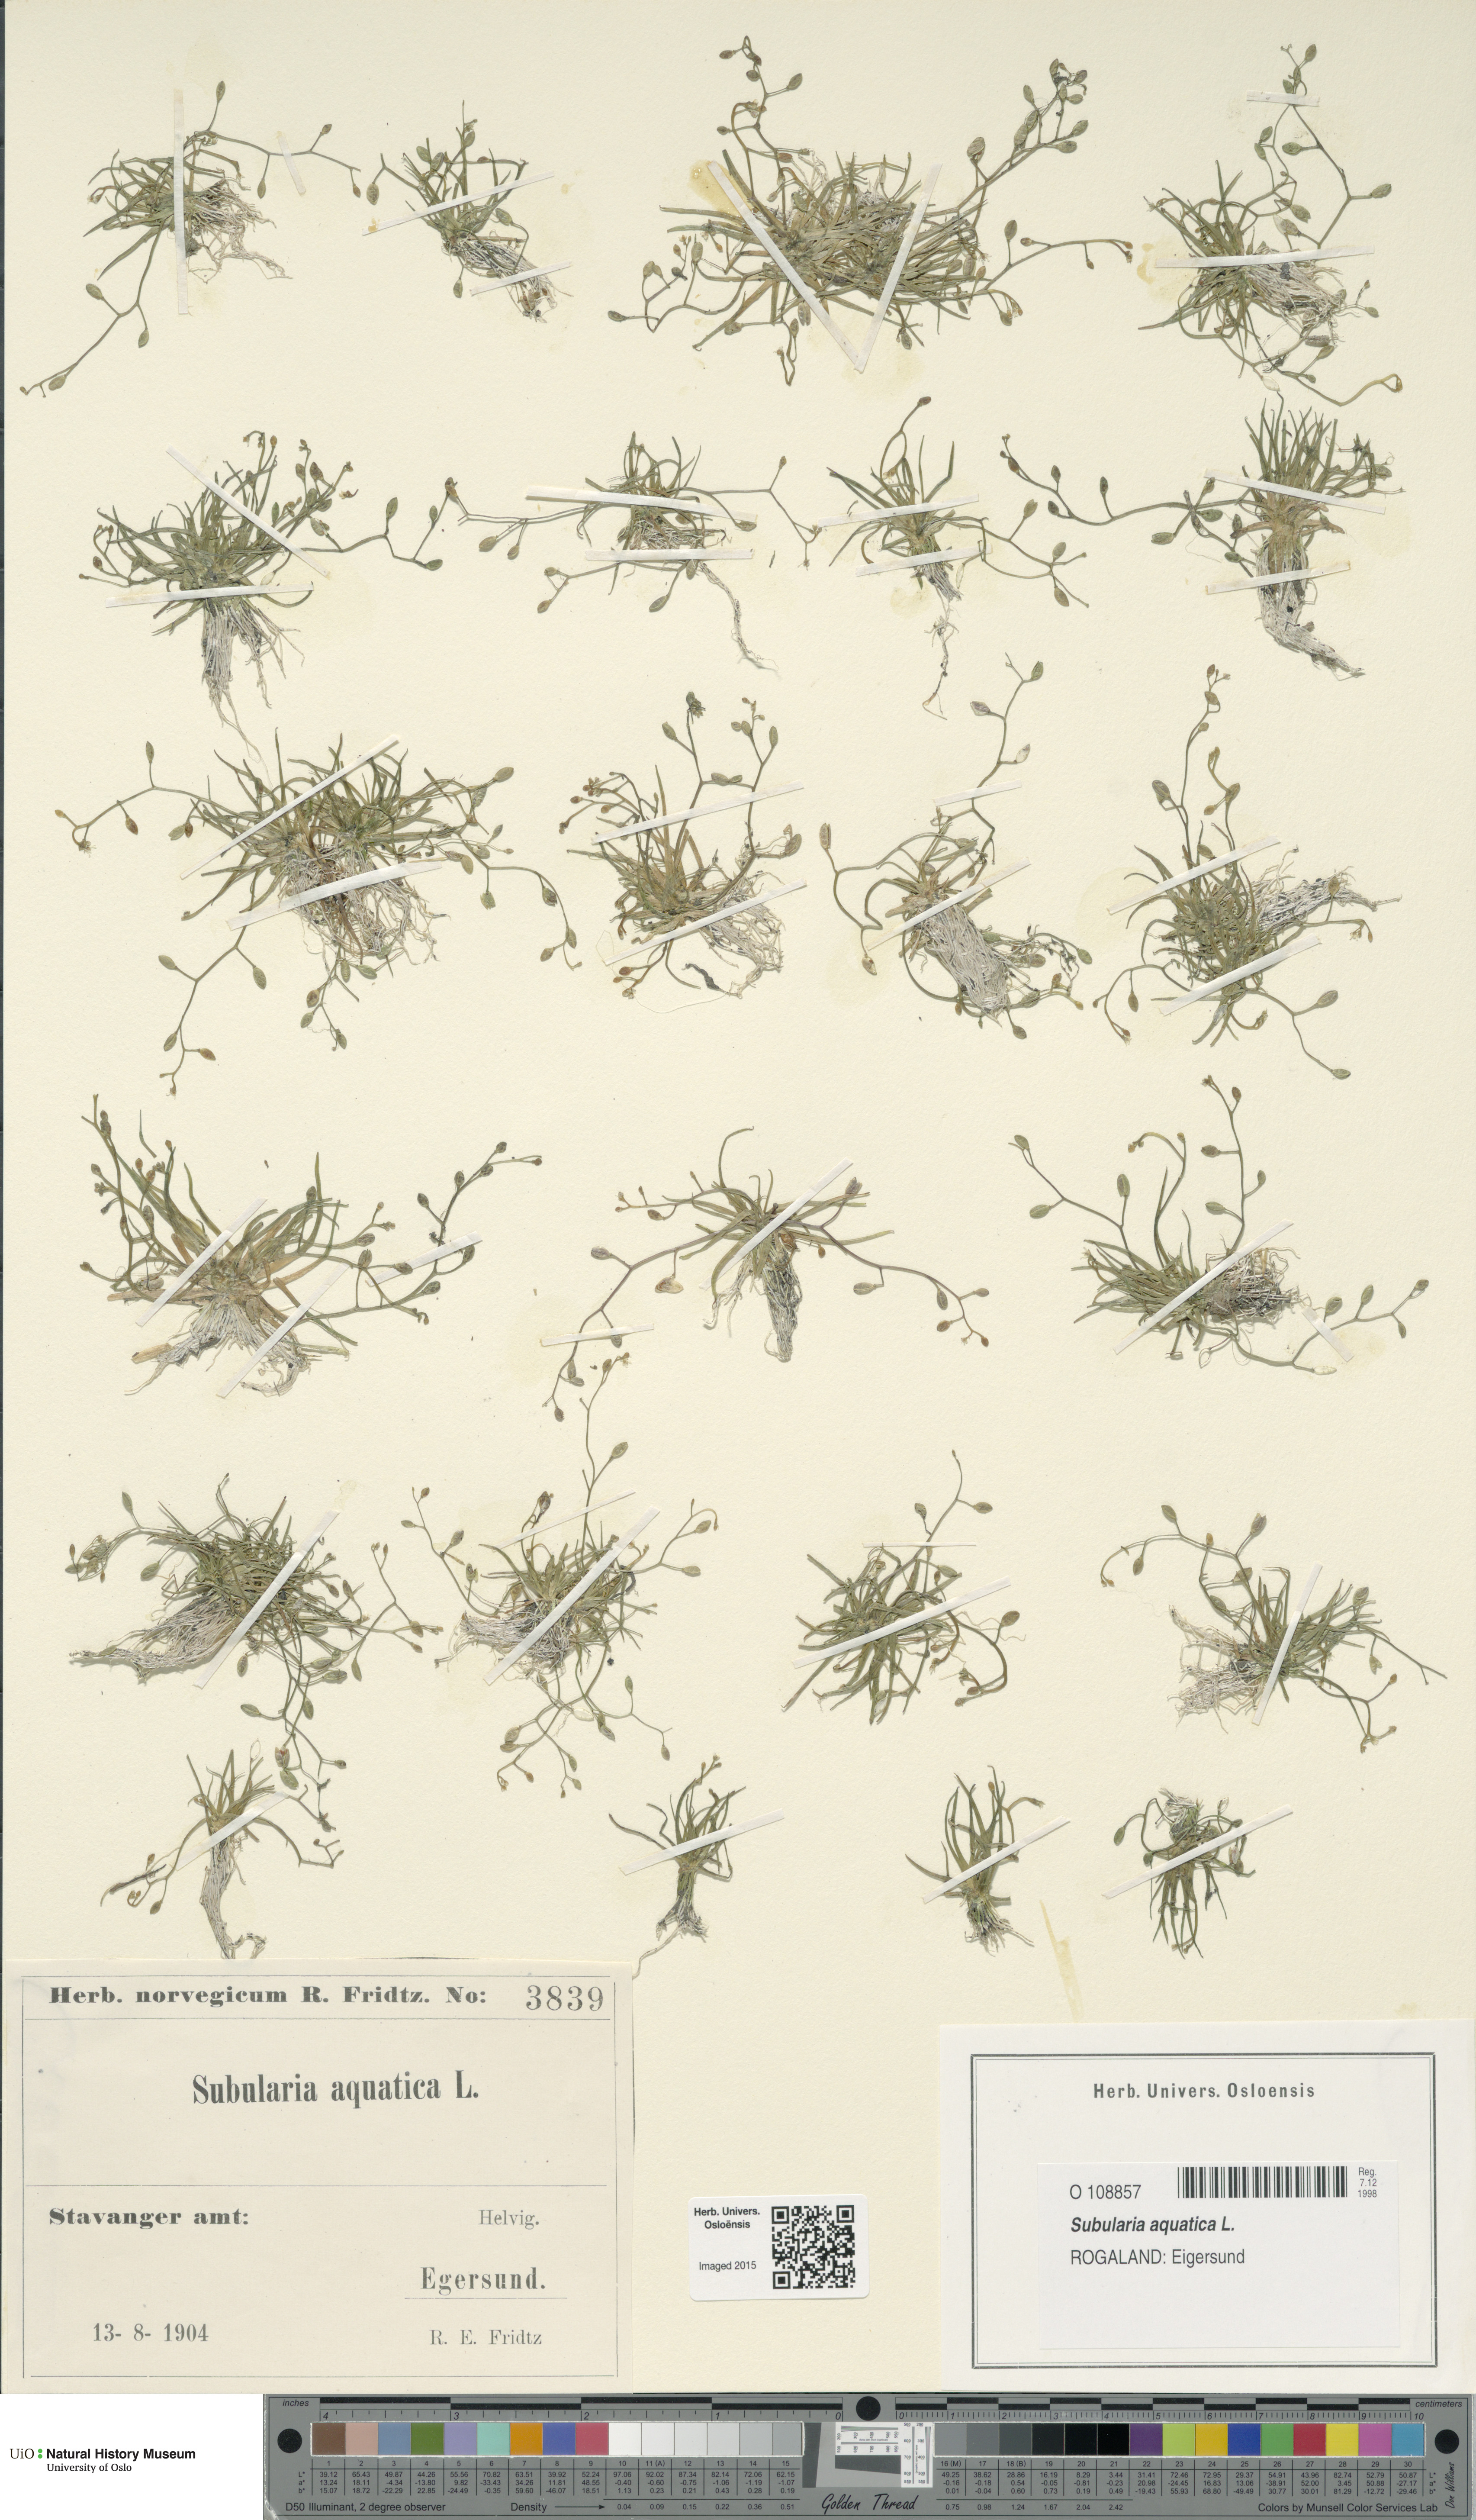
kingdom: Plantae
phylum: Tracheophyta
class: Magnoliopsida
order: Brassicales
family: Brassicaceae
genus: Subularia
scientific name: Subularia aquatica
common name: Awlwort
